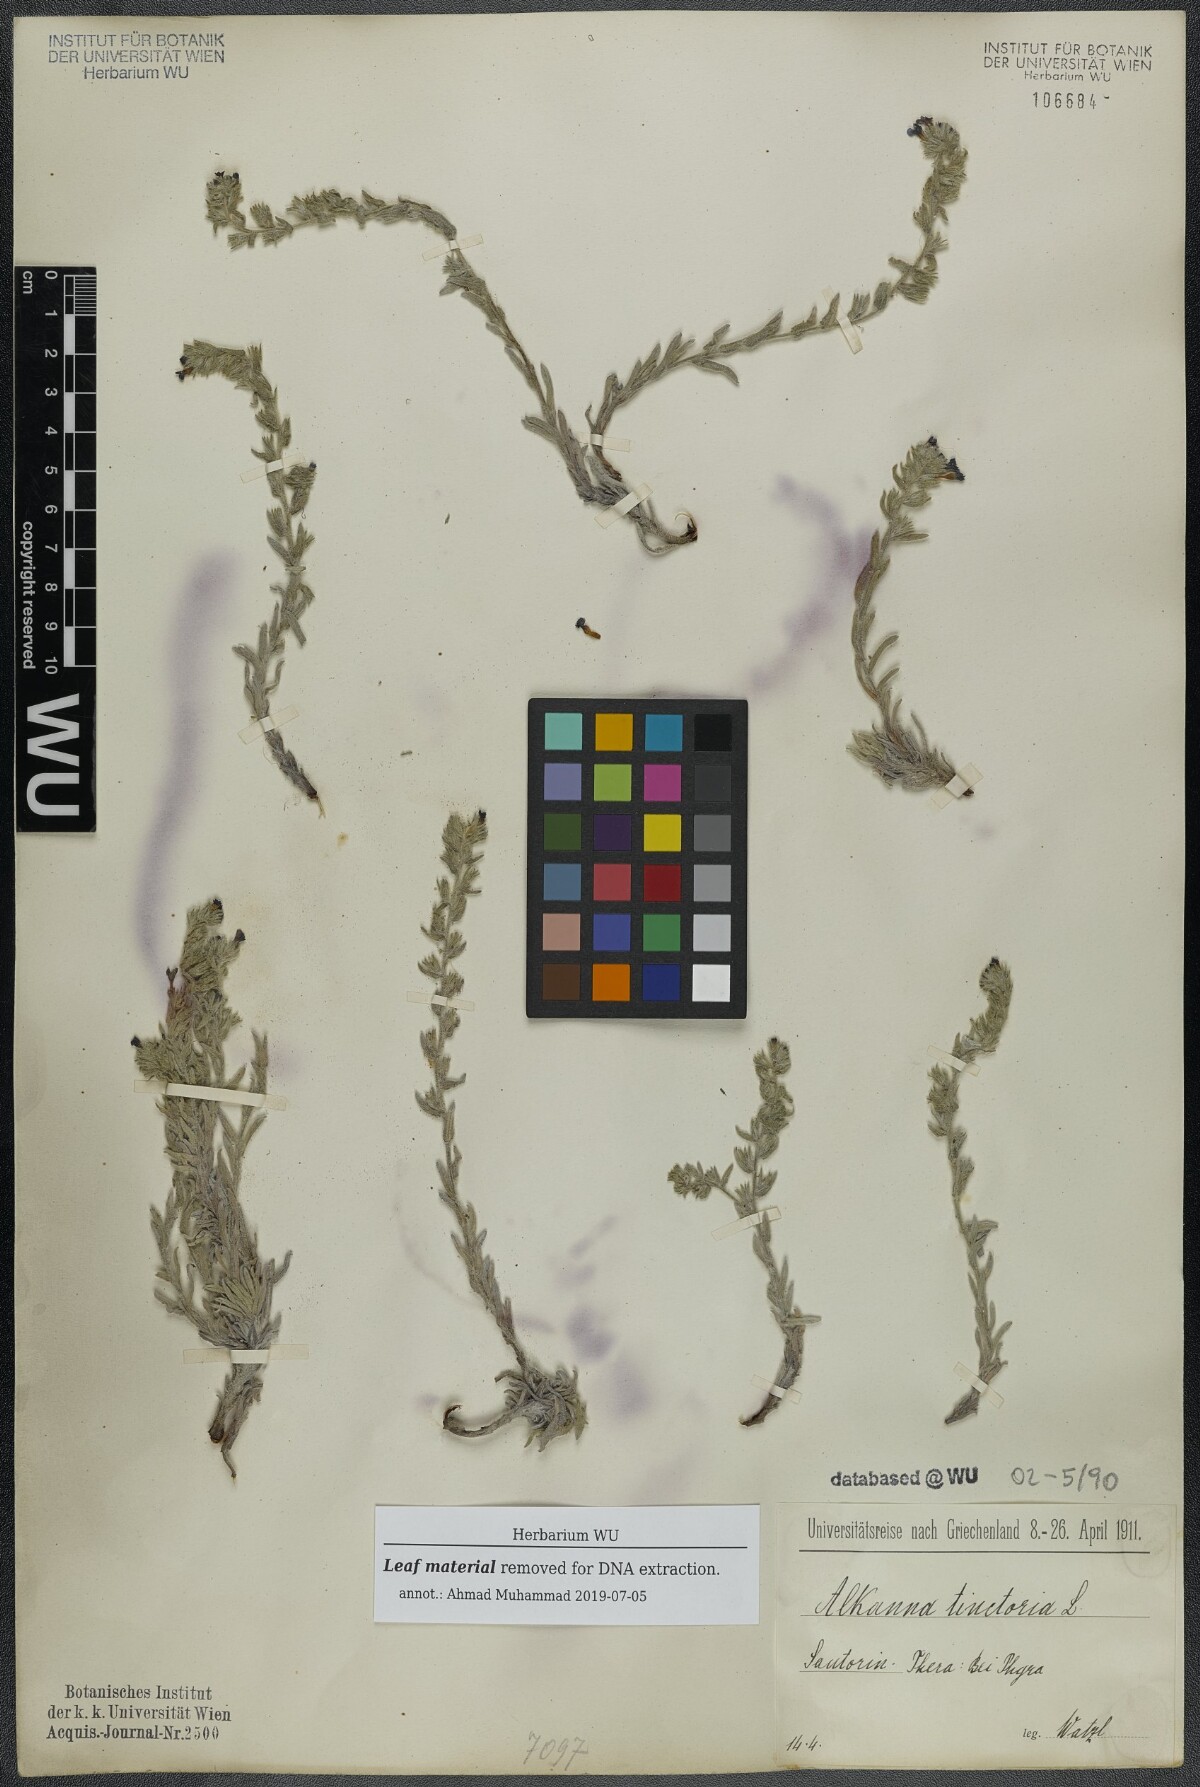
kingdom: Plantae
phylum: Tracheophyta
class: Magnoliopsida
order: Boraginales
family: Boraginaceae
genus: Alkanna
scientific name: Alkanna tinctoria
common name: Dyer's-alkanet
